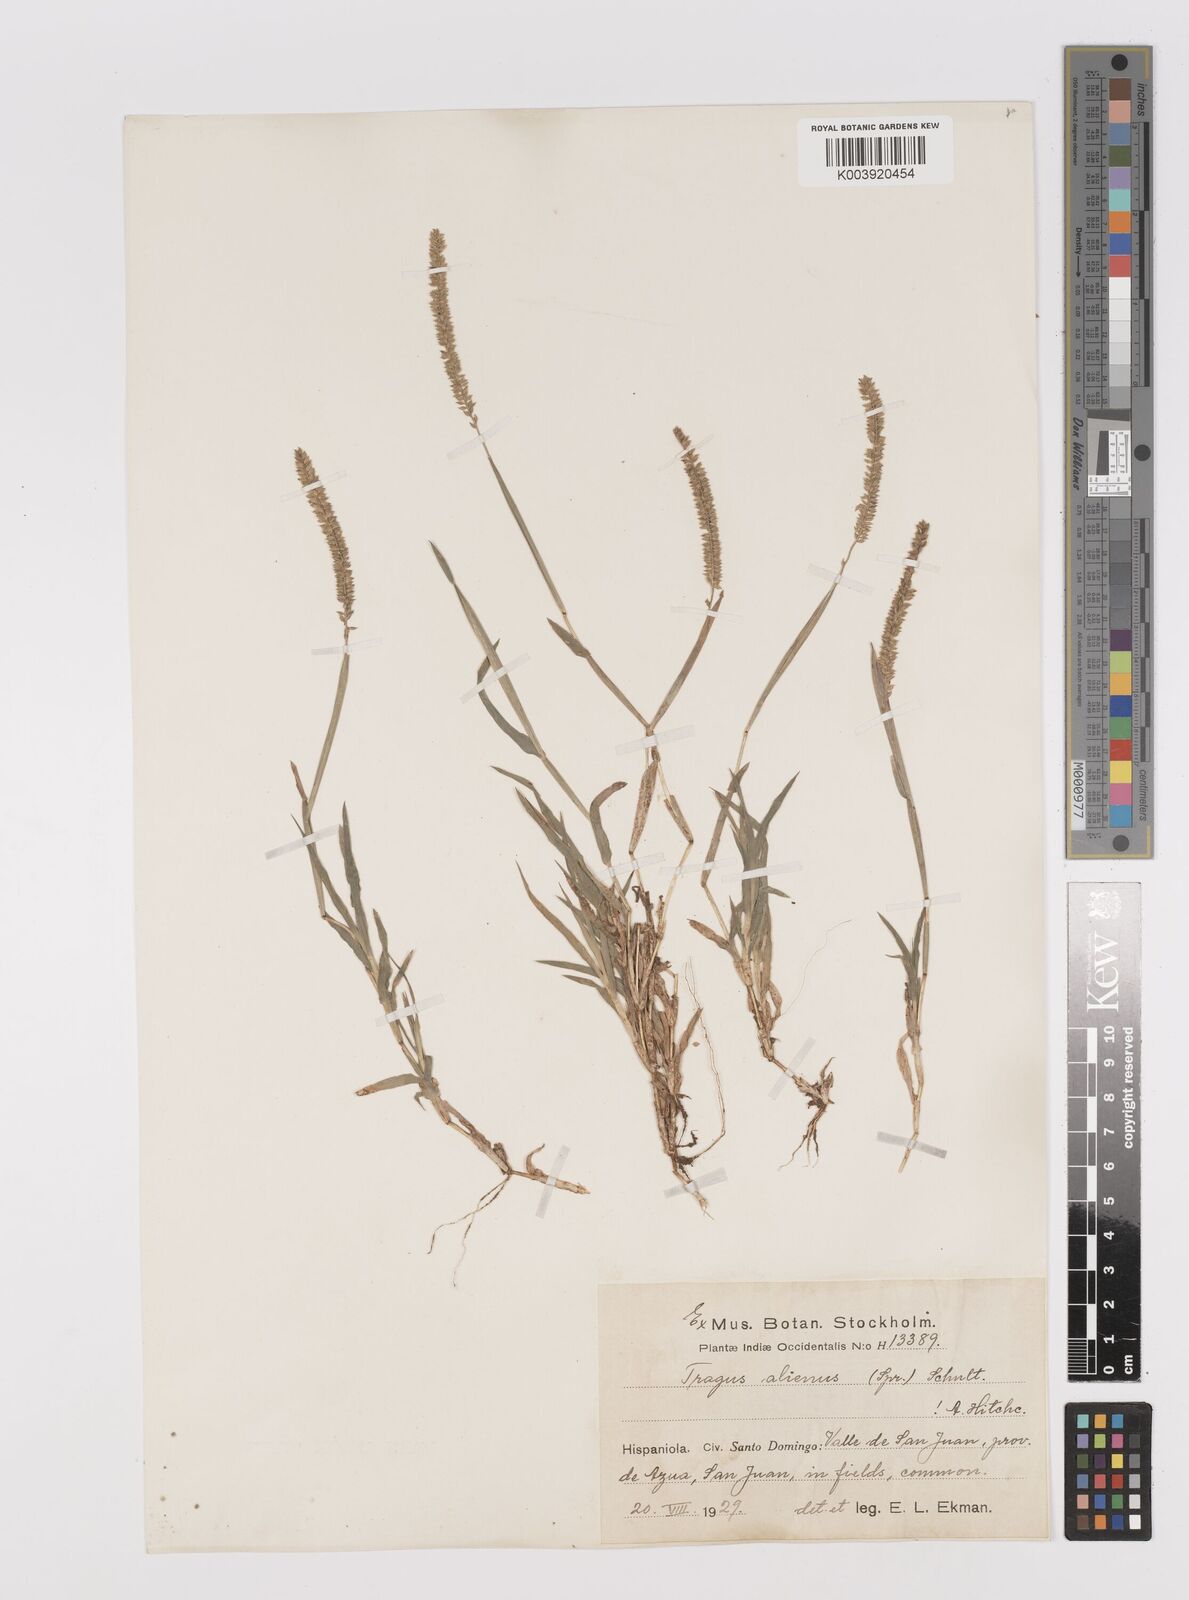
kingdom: Plantae
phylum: Tracheophyta
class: Liliopsida
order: Poales
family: Poaceae
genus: Tragus
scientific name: Tragus berteronianus
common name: African bur-grass
